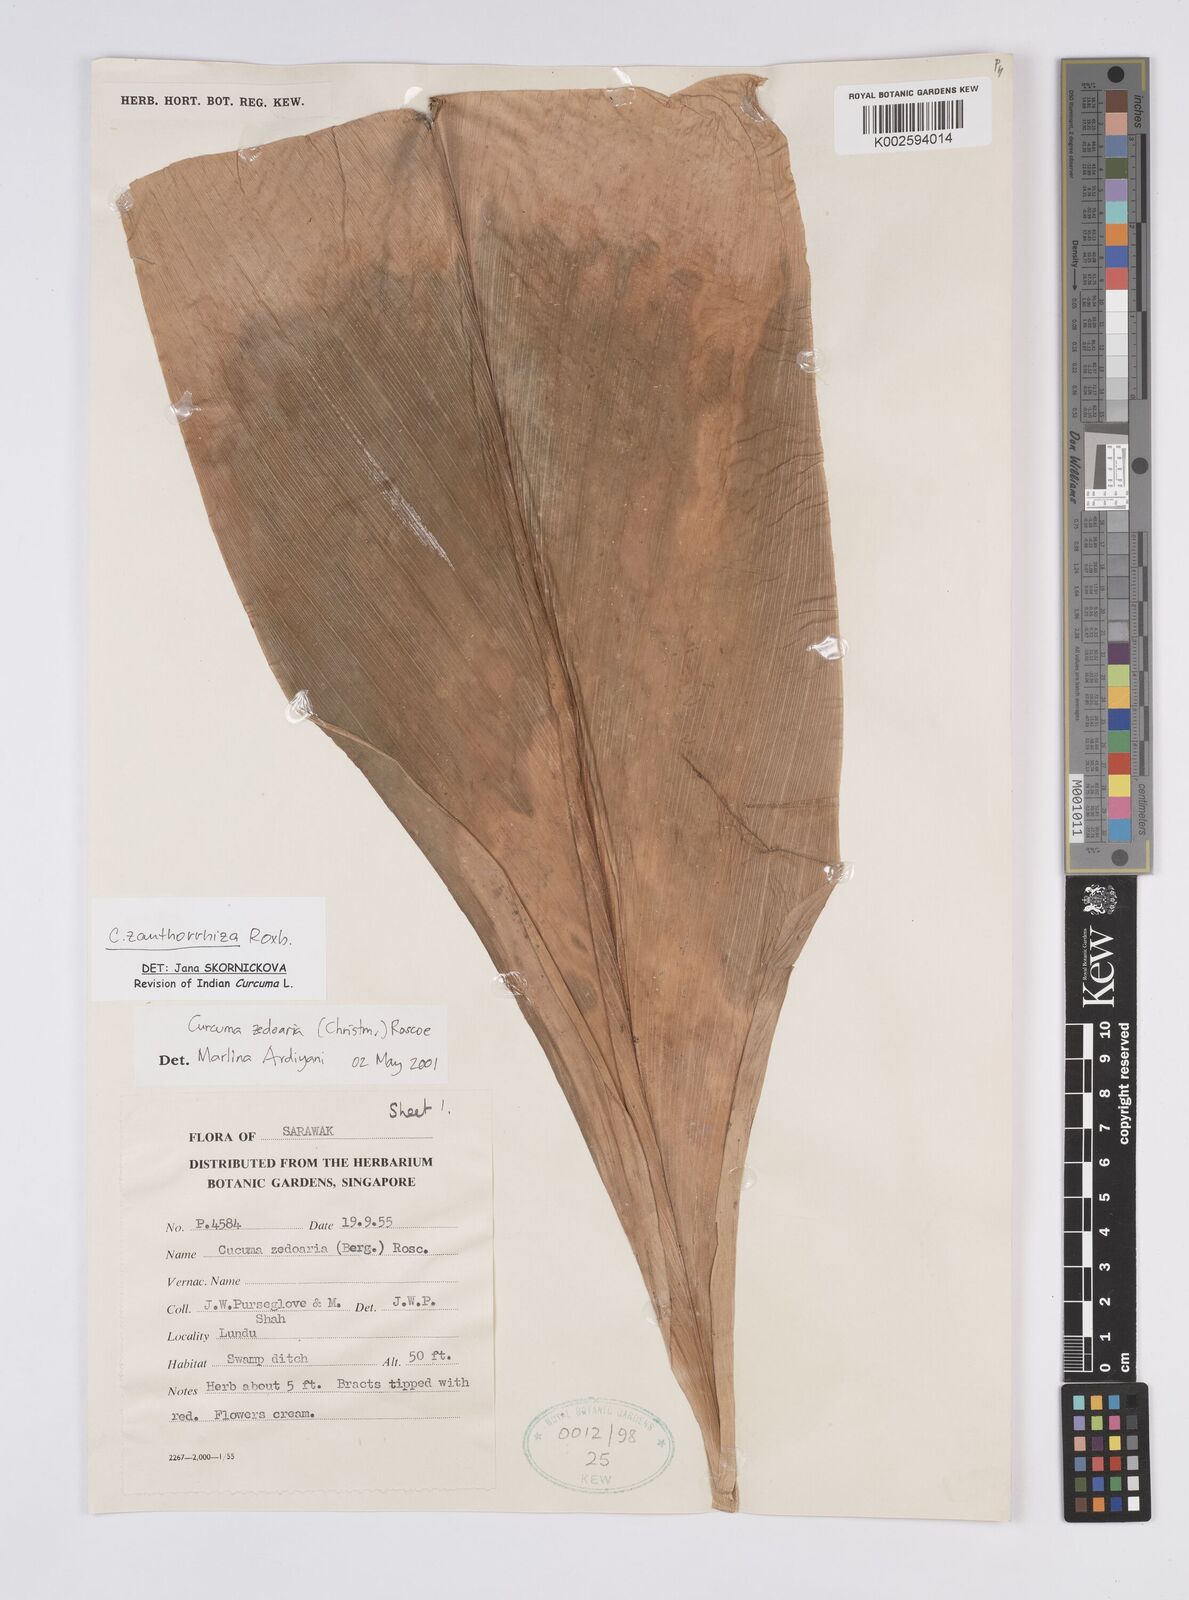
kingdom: Plantae
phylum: Tracheophyta
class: Liliopsida
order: Zingiberales
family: Zingiberaceae
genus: Curcuma
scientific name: Curcuma zanthorrhiza
